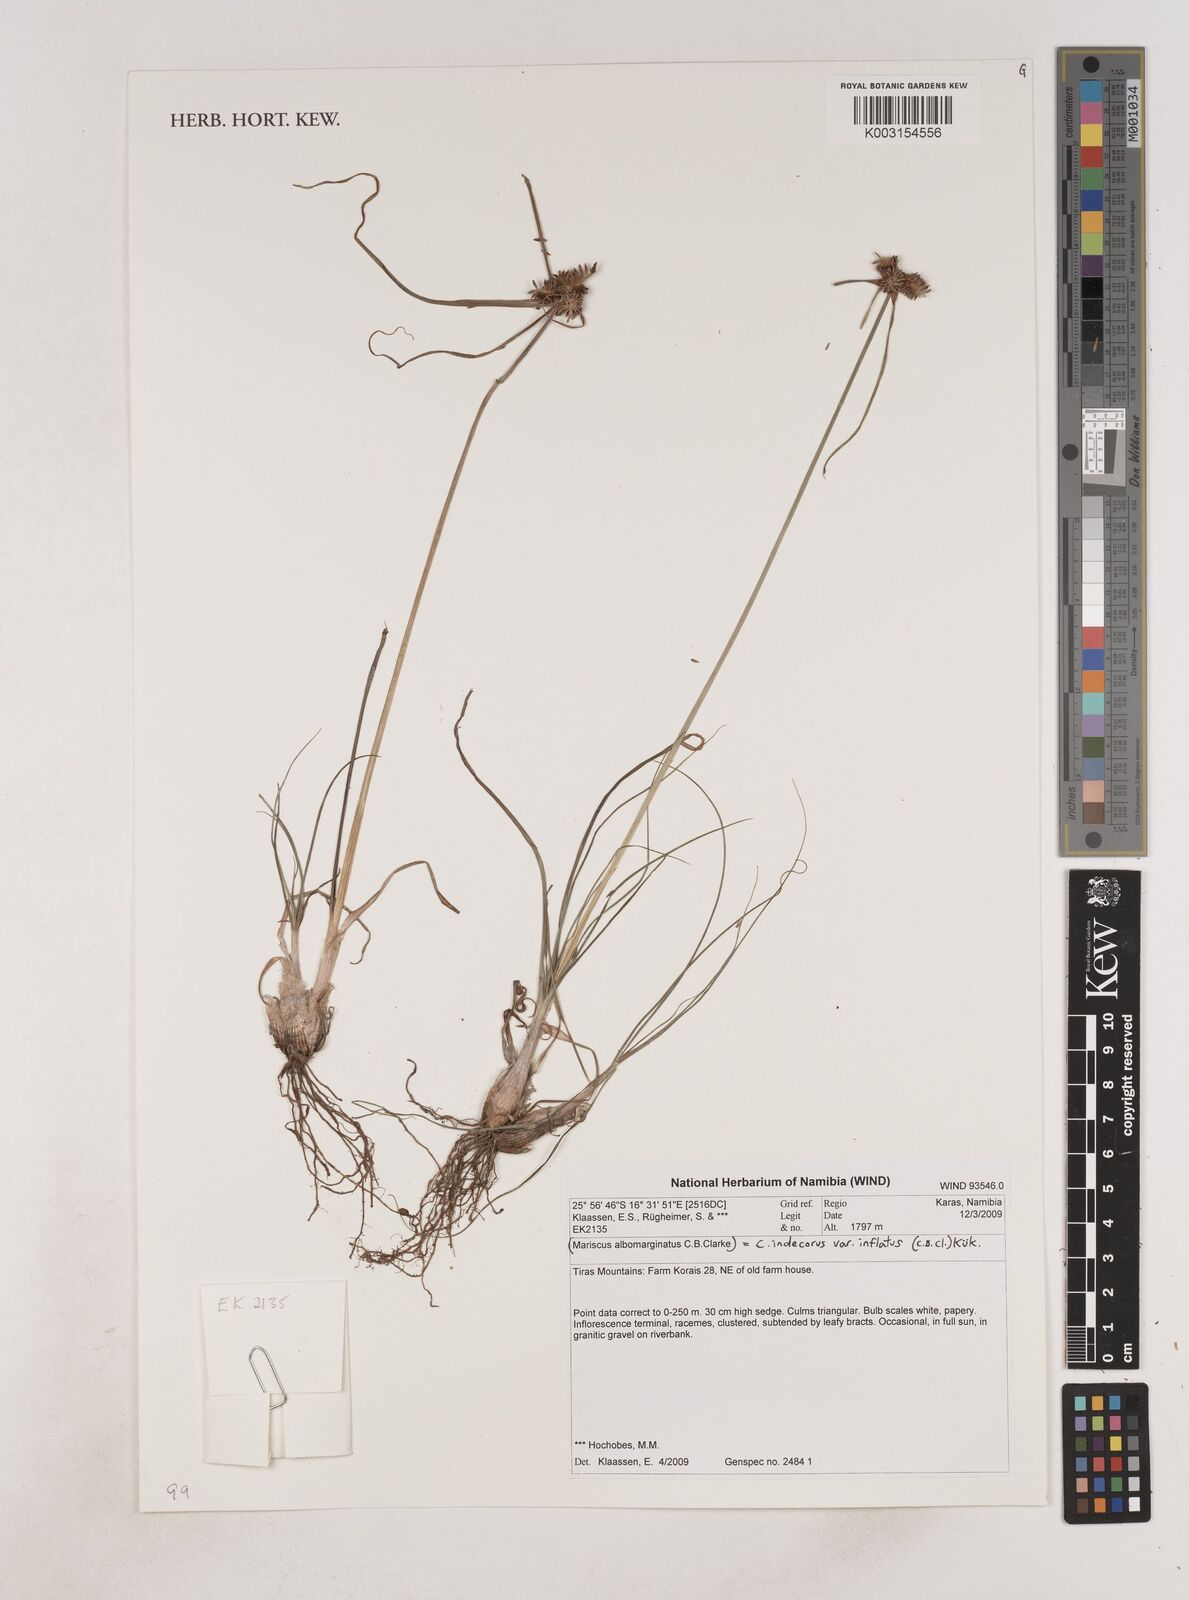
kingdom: Plantae
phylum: Tracheophyta
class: Liliopsida
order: Poales
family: Cyperaceae
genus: Cyperus
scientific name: Cyperus indecorus
